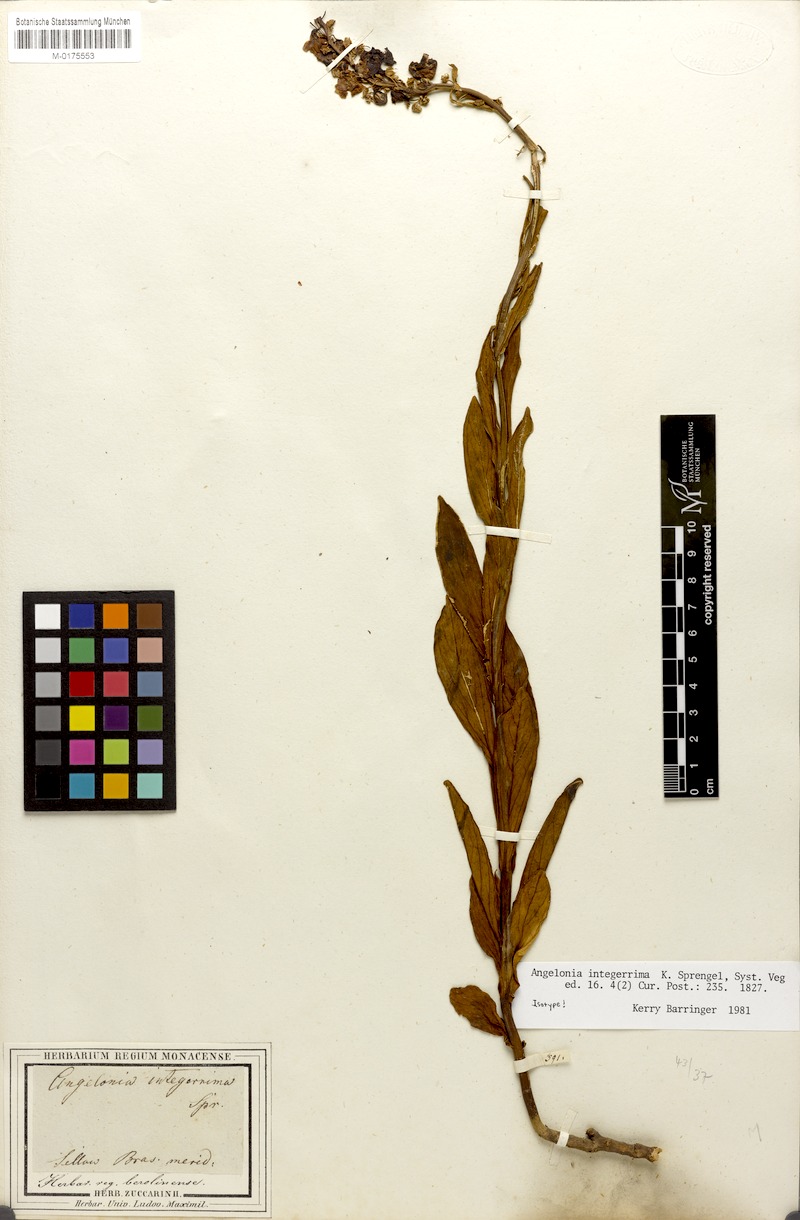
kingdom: Plantae
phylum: Tracheophyta
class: Magnoliopsida
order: Lamiales
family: Plantaginaceae
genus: Angelonia
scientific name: Angelonia integerrima
